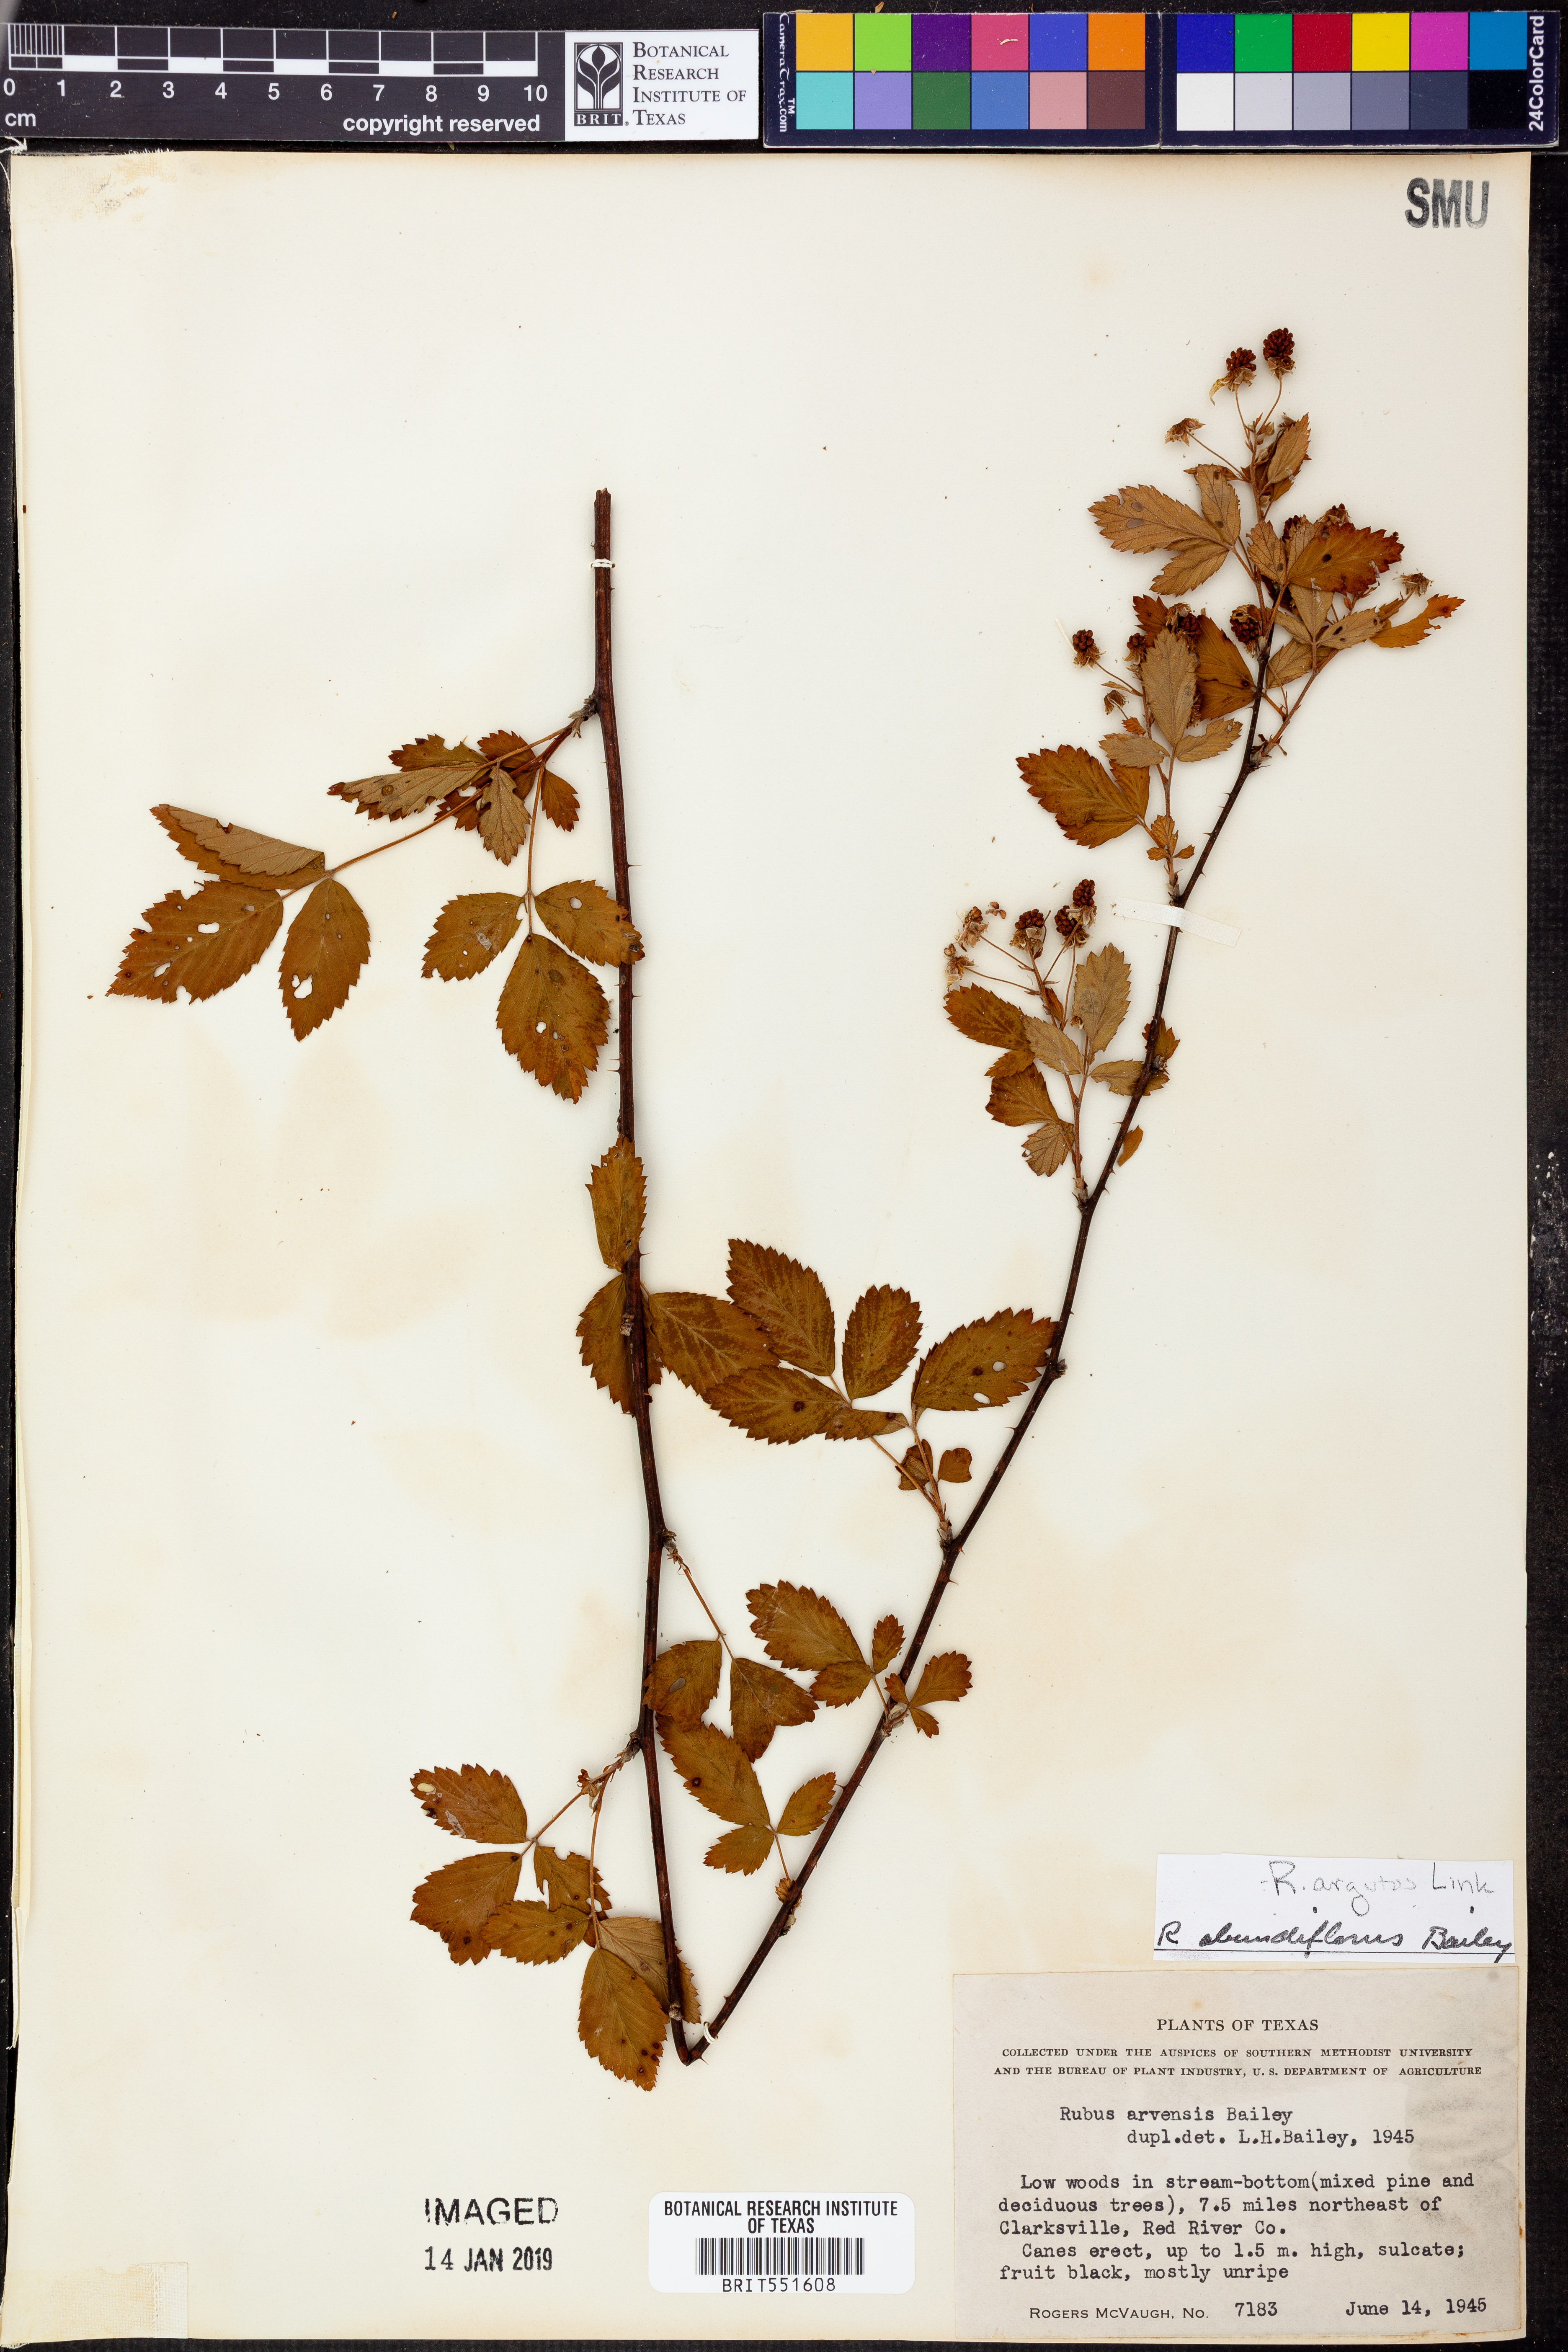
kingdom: Plantae
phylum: Tracheophyta
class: Magnoliopsida
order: Rosales
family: Rosaceae
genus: Rubus
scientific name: Rubus argutus
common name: Sawtooth blackberry
